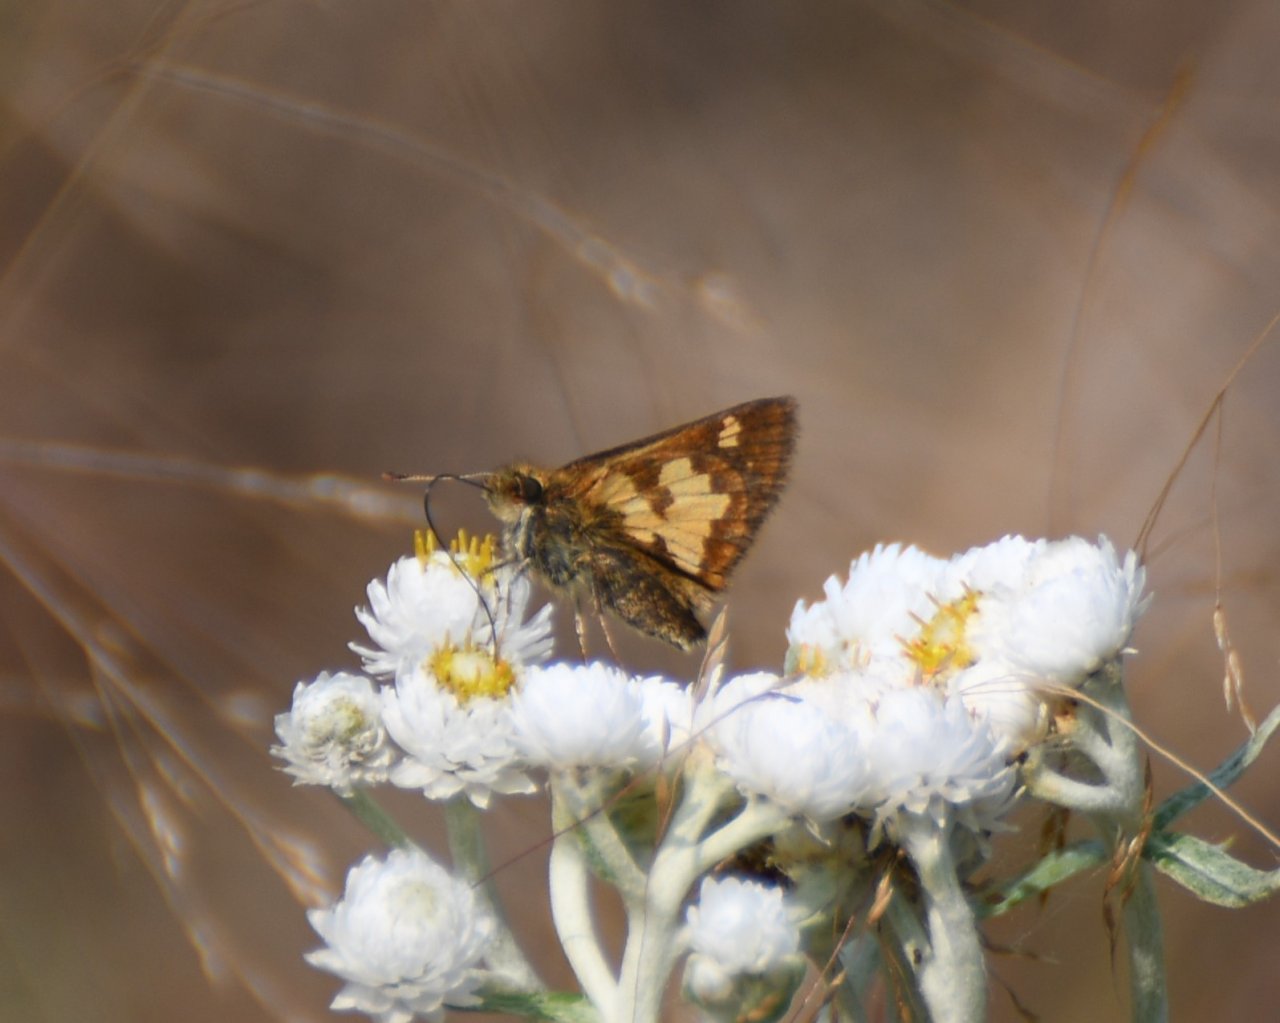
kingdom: Animalia
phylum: Arthropoda
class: Insecta
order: Lepidoptera
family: Hesperiidae
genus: Polites
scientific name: Polites coras
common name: Peck's Skipper
